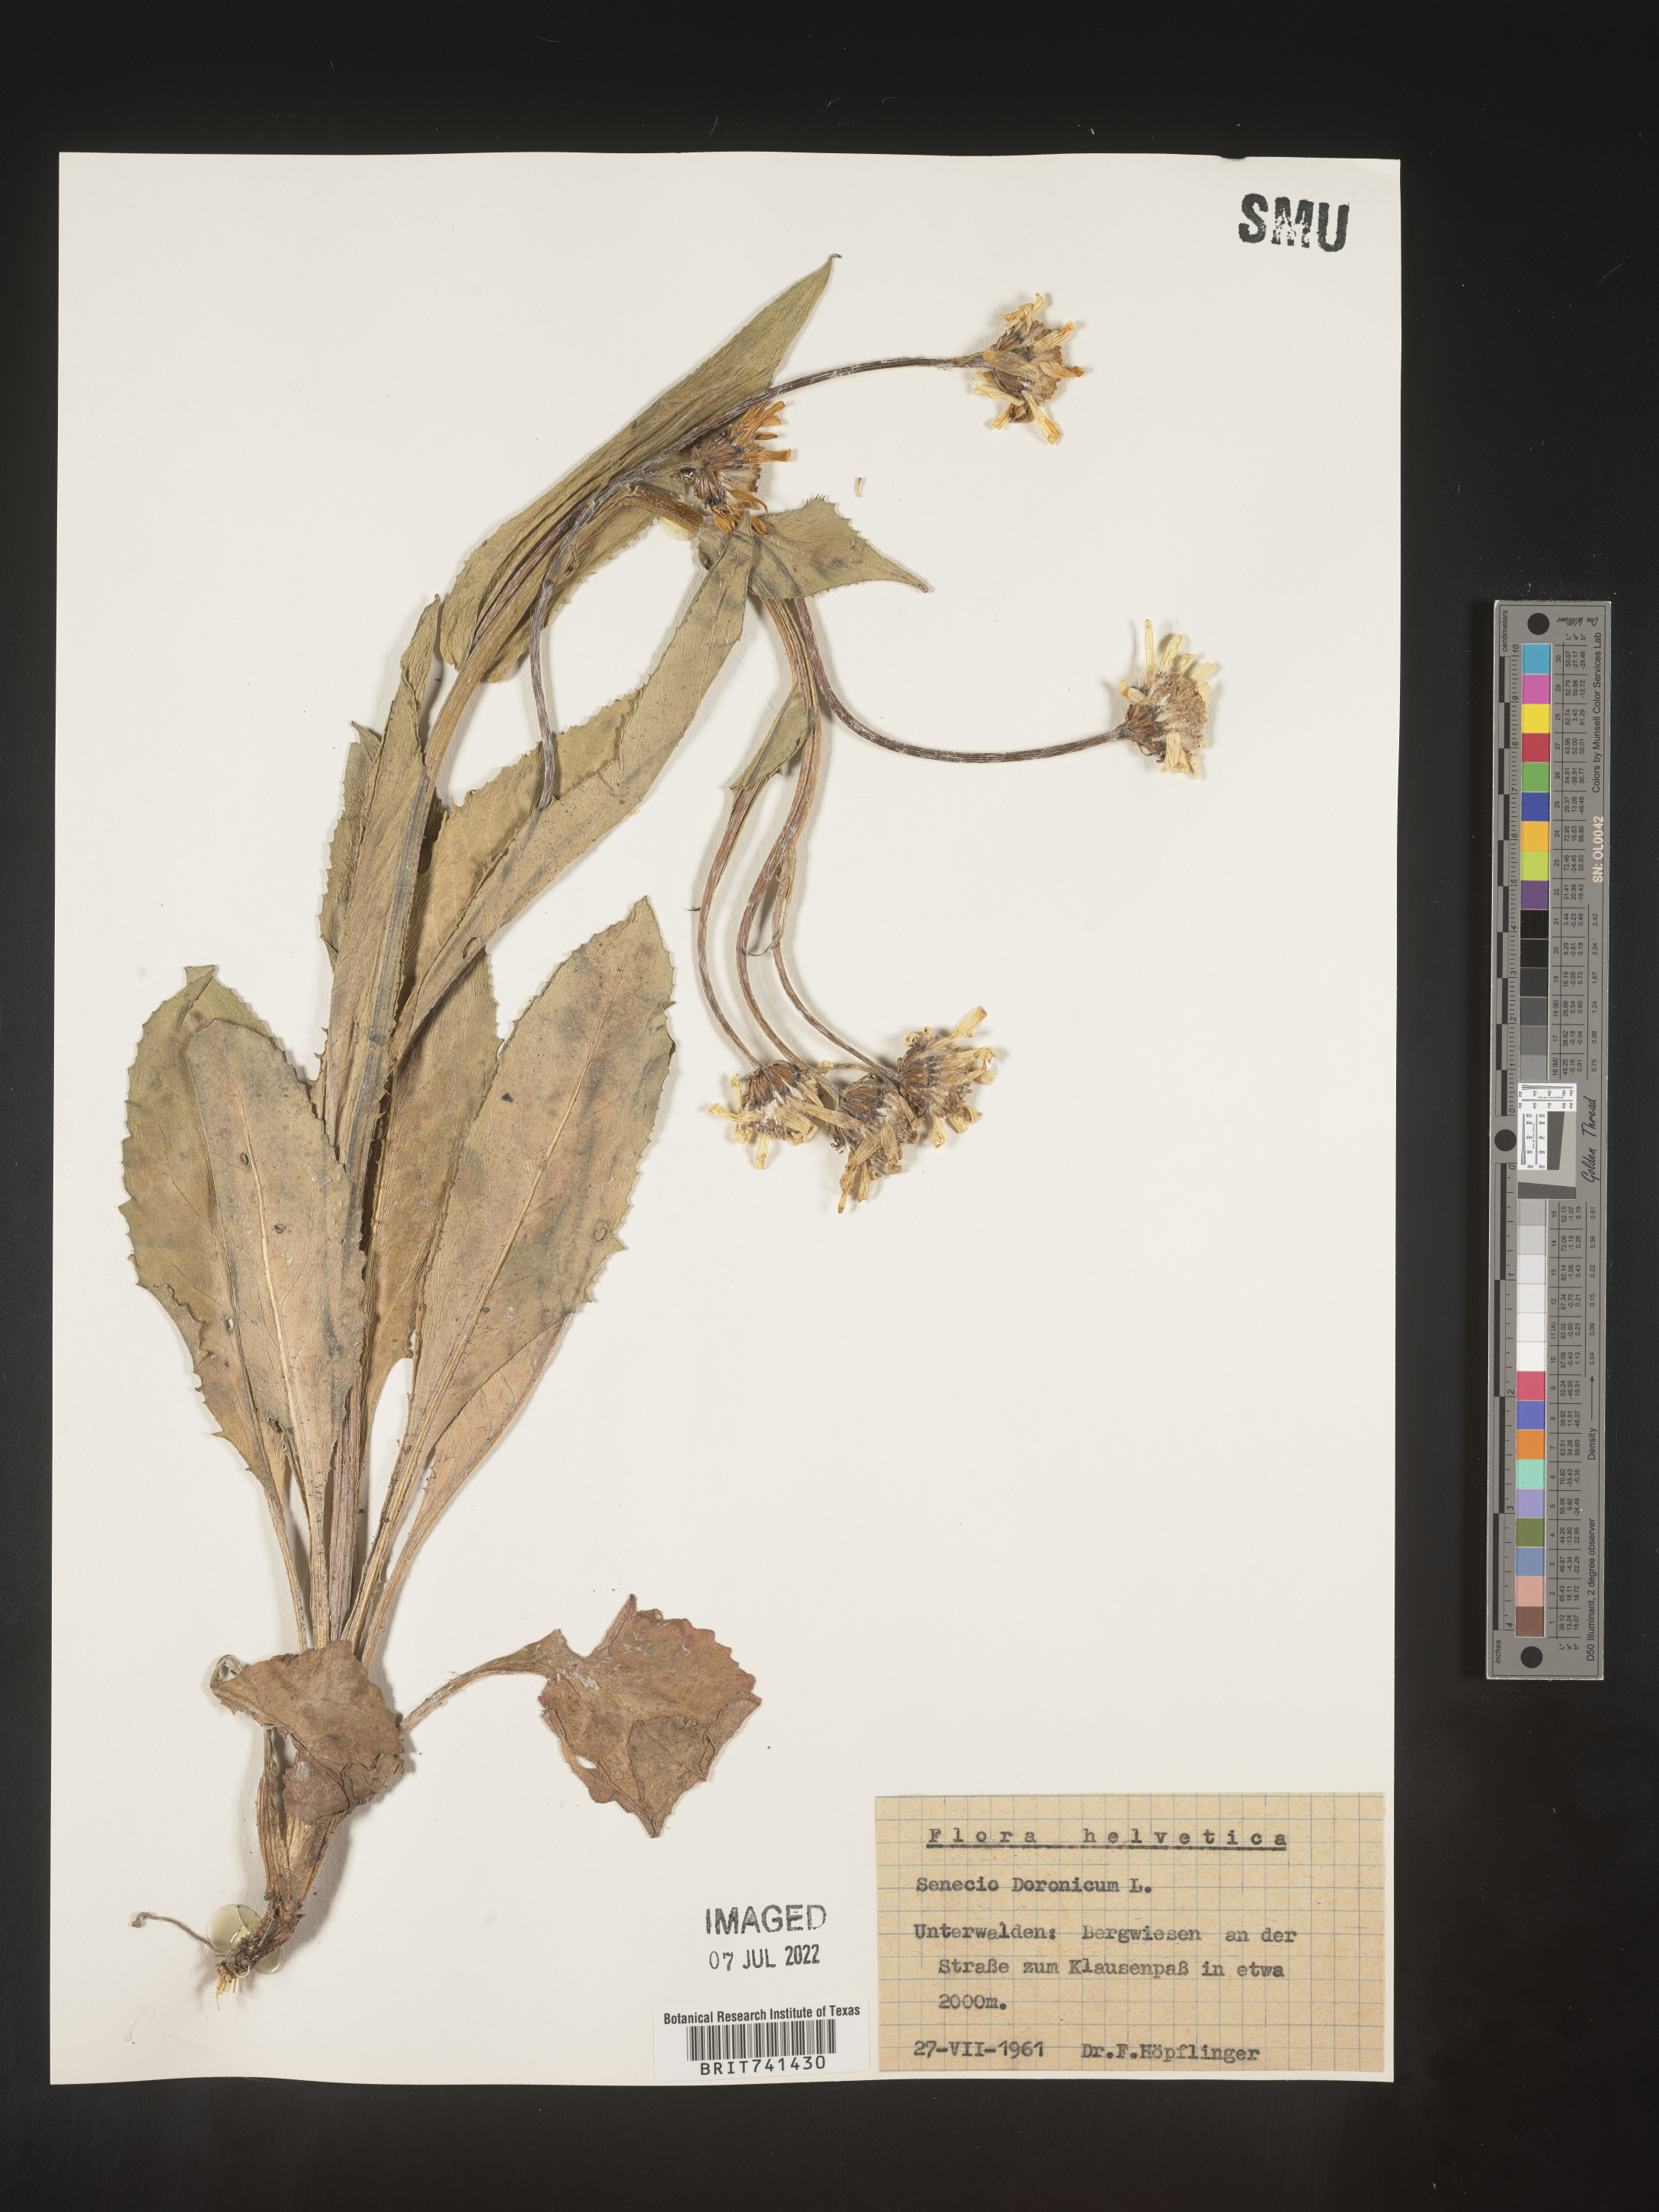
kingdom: Plantae
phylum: Tracheophyta
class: Magnoliopsida
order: Asterales
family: Asteraceae
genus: Senecio
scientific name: Senecio
